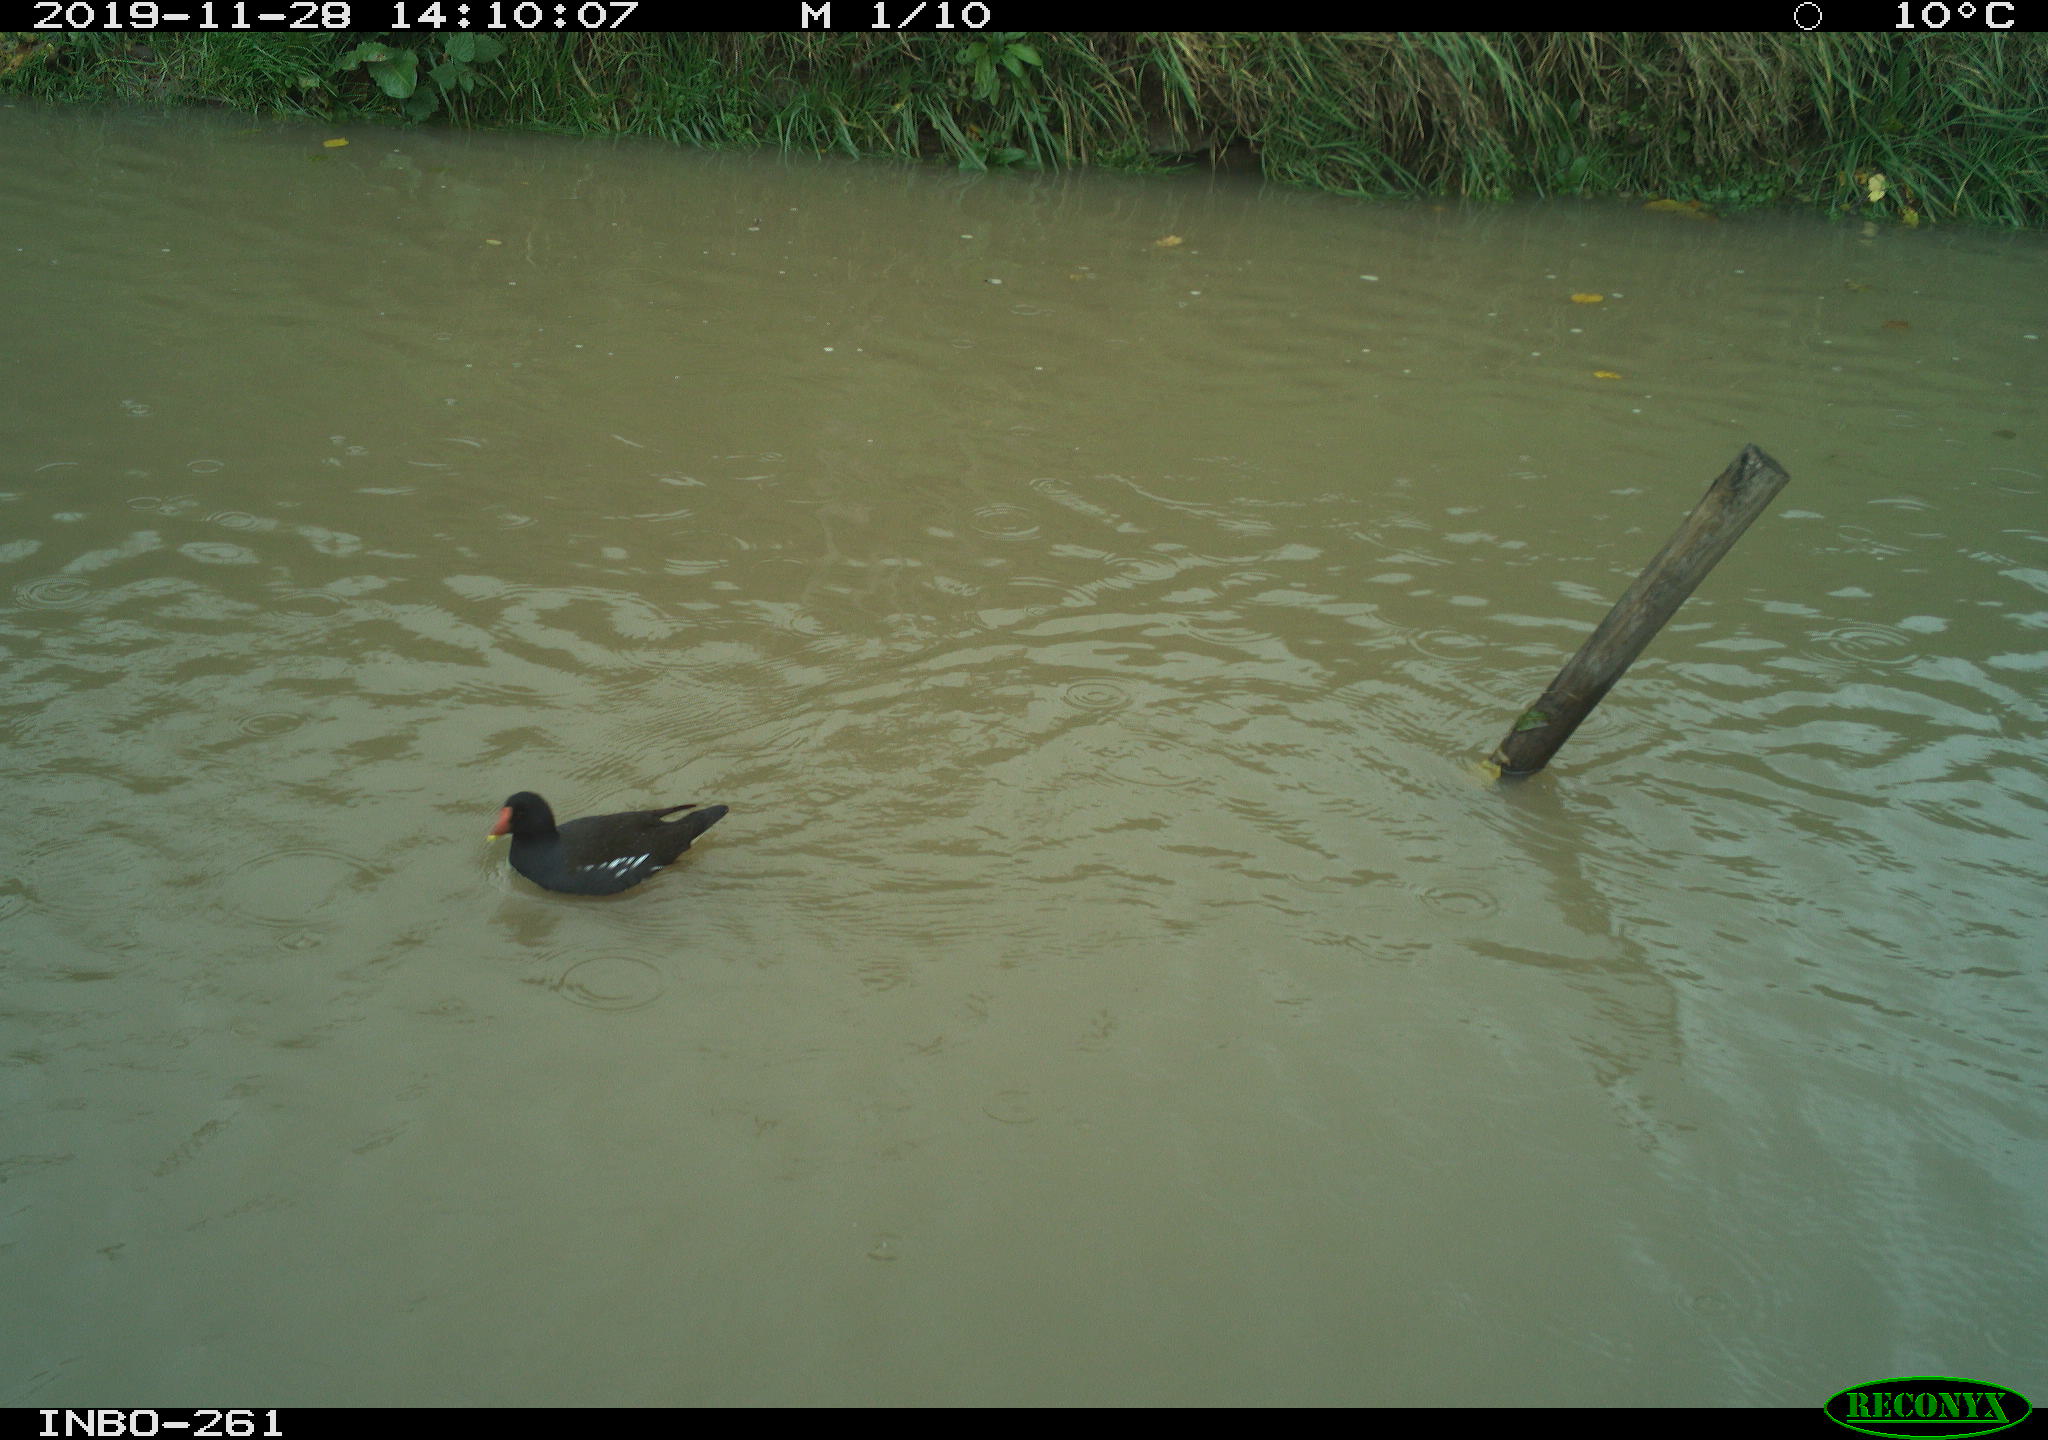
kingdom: Animalia
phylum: Chordata
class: Aves
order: Gruiformes
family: Rallidae
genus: Gallinula
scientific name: Gallinula chloropus
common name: Common moorhen
